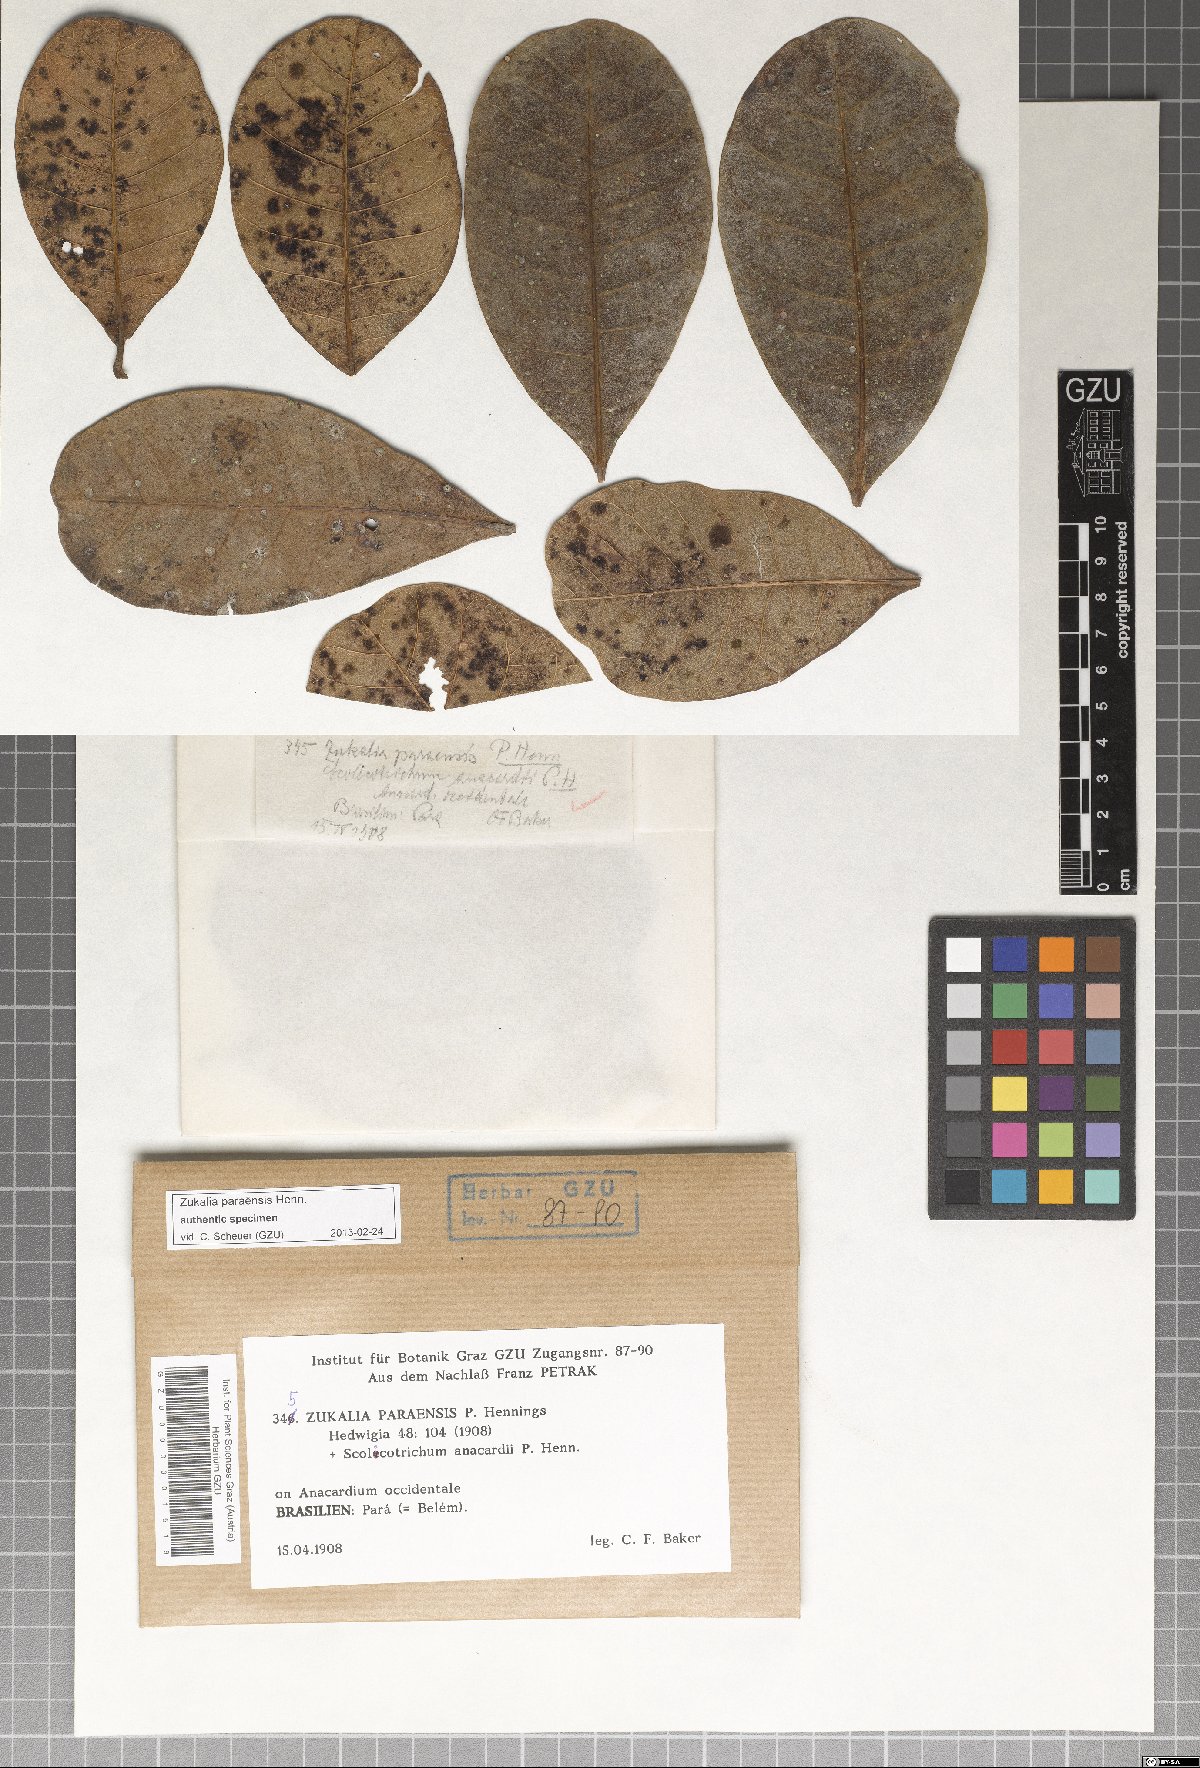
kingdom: Fungi
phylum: Ascomycota
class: Dothideomycetes
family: Pseudoperisporiaceae
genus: Dimerina
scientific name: Dimerina paraensis
